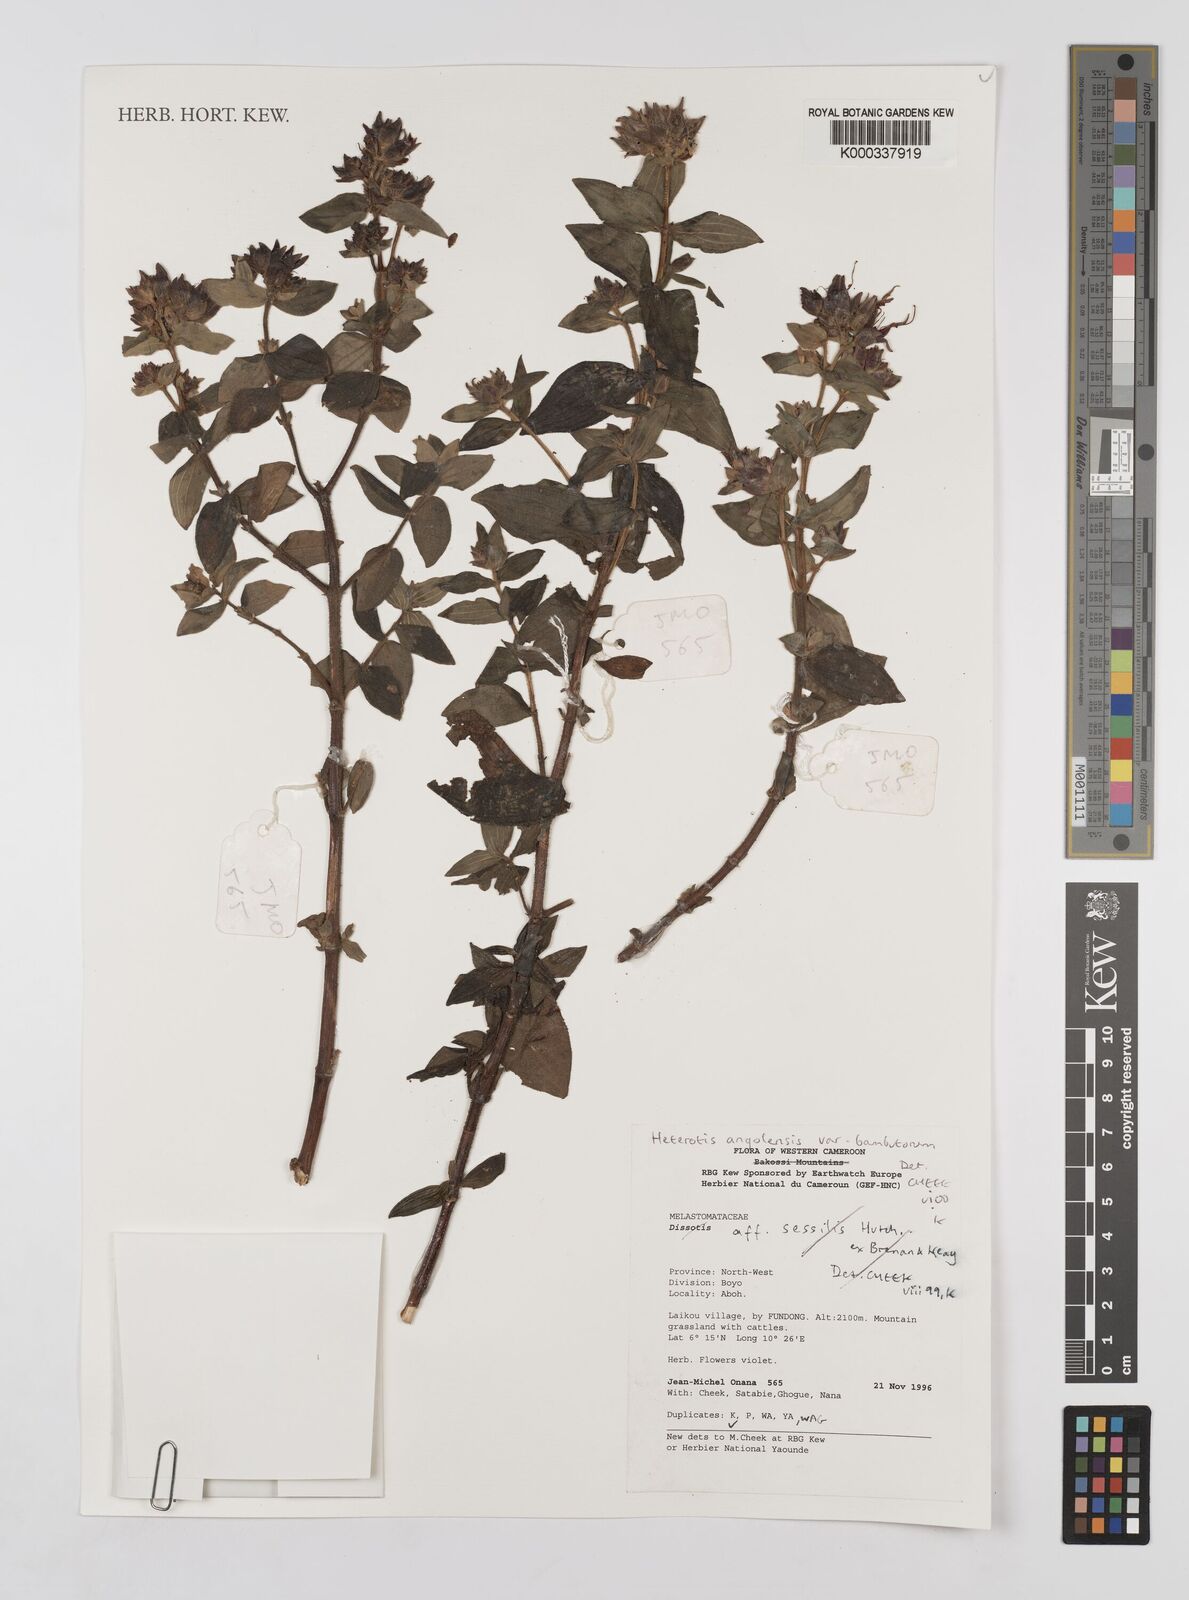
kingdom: Plantae
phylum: Tracheophyta
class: Magnoliopsida
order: Myrtales
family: Melastomataceae
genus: Argyrella
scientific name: Argyrella bambutorum
